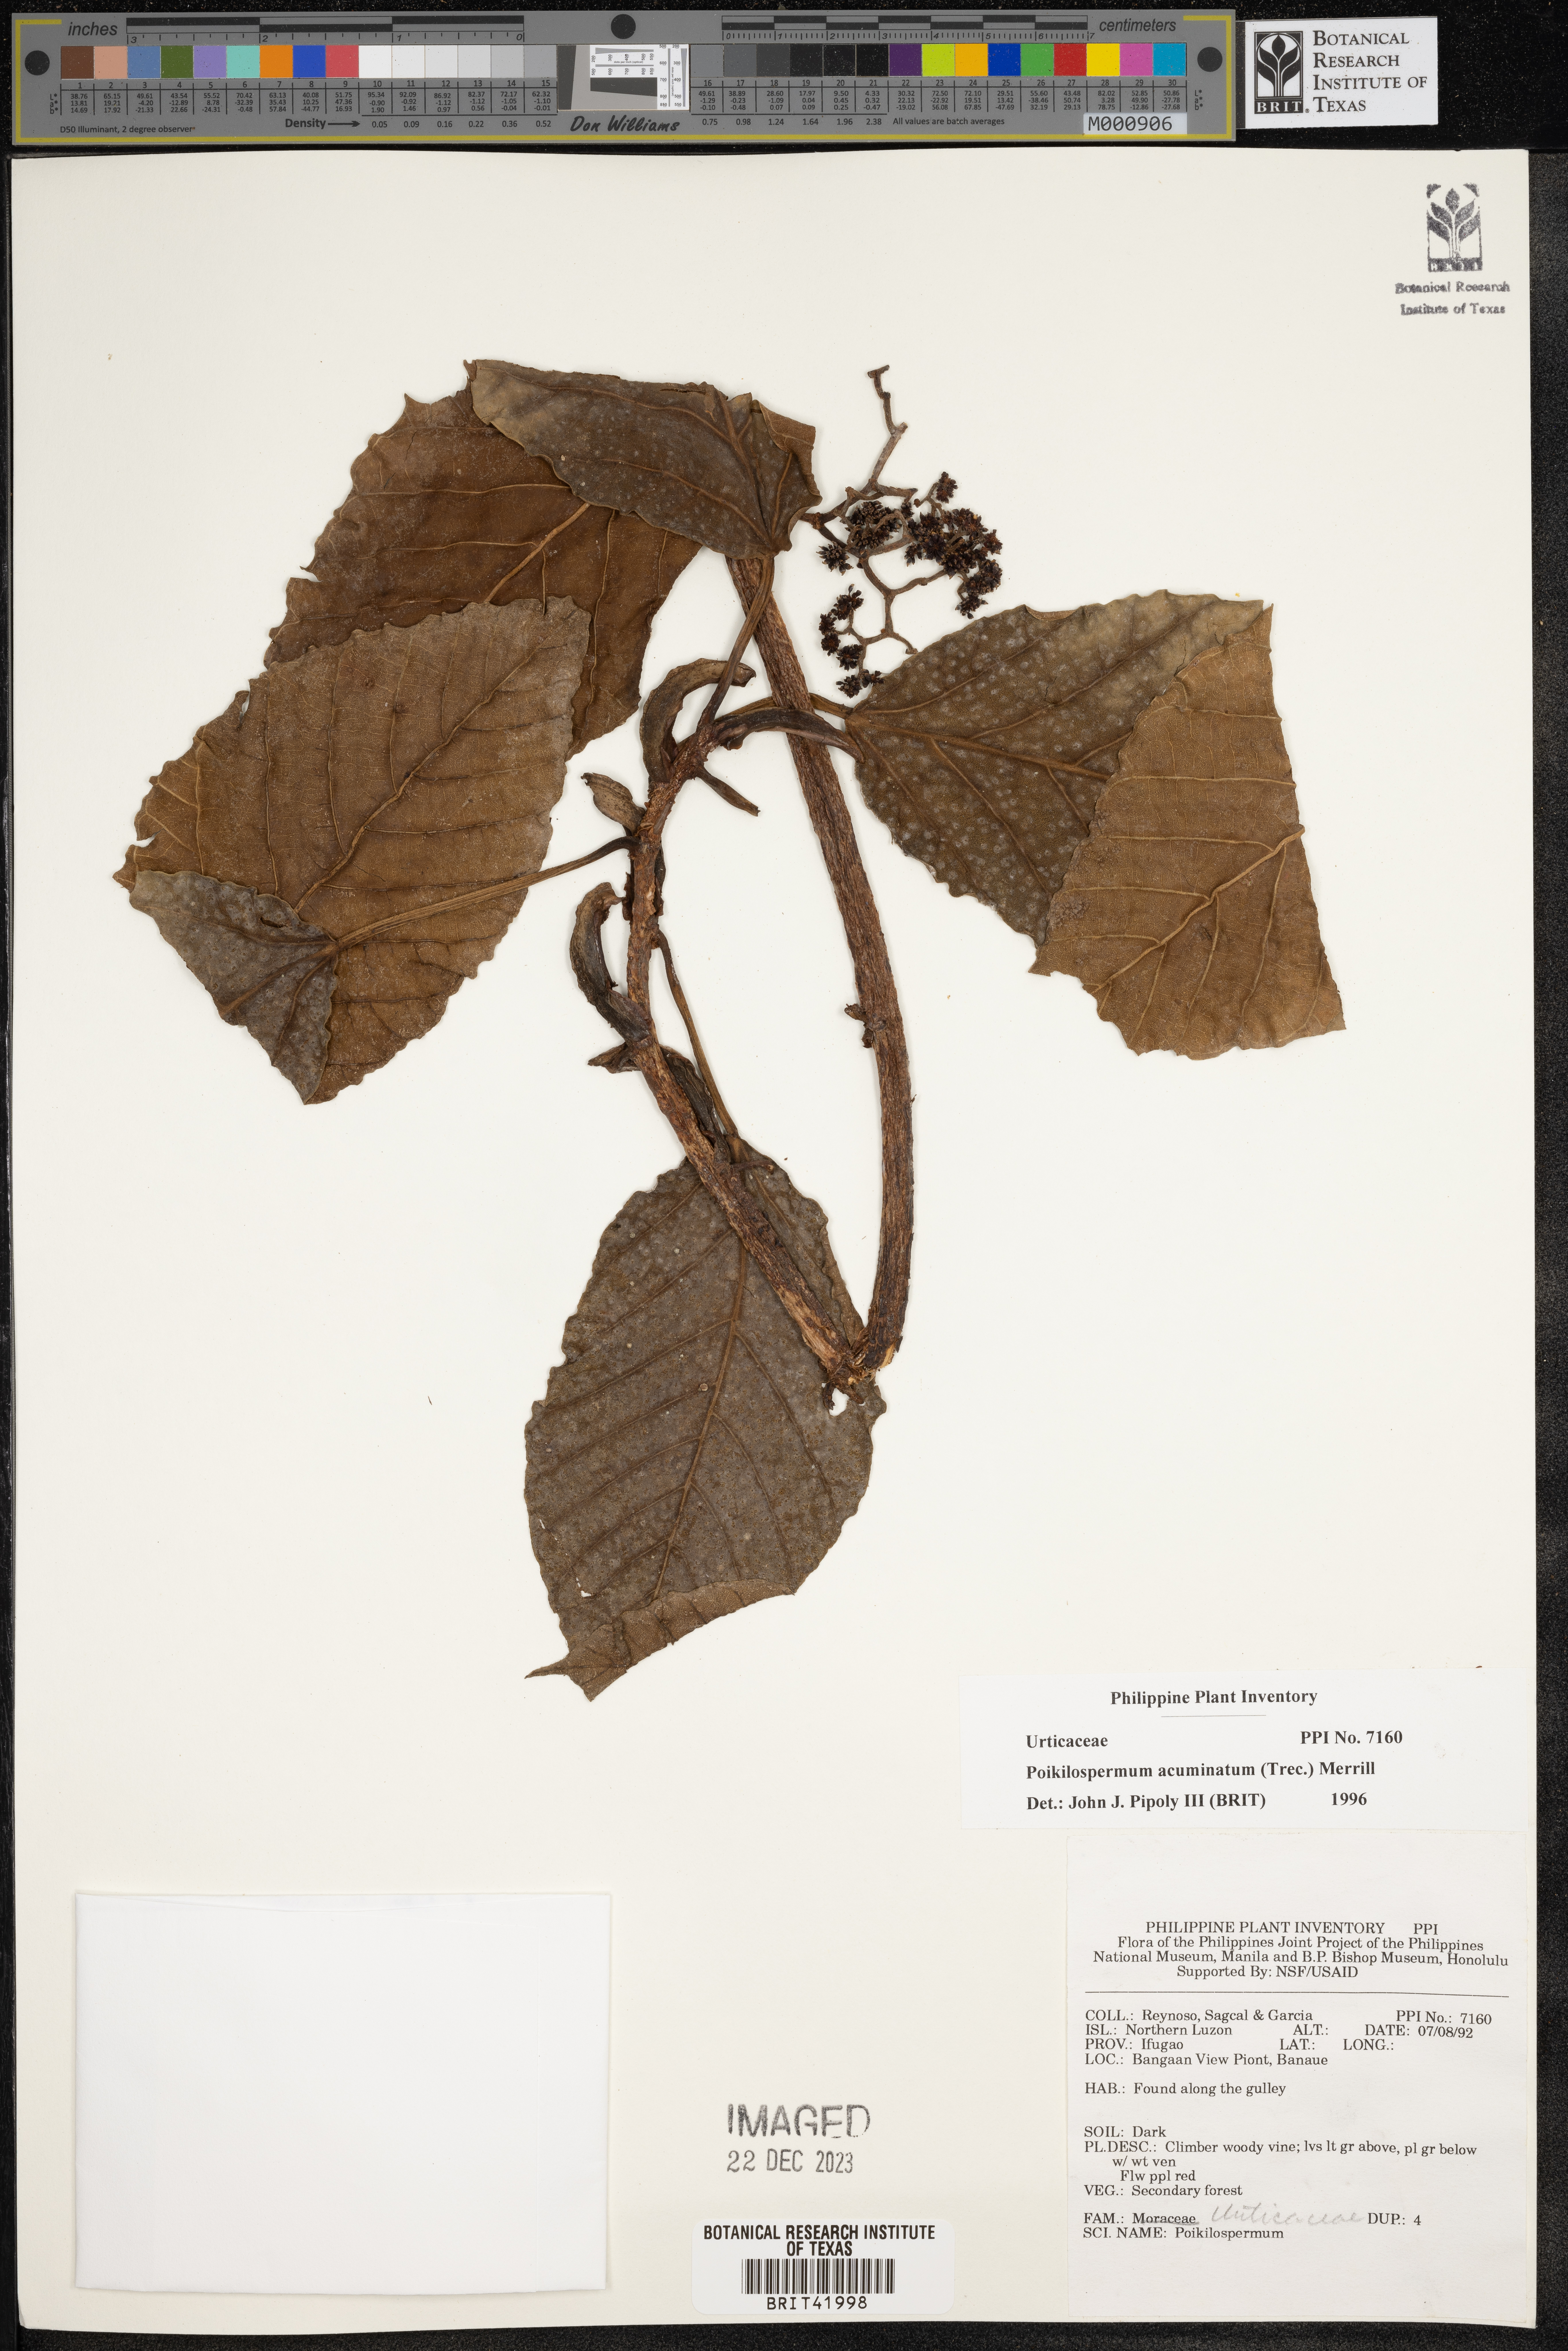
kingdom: Plantae
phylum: Tracheophyta
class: Magnoliopsida
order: Rosales
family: Urticaceae
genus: Poikilospermum
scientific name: Poikilospermum acuminatum
